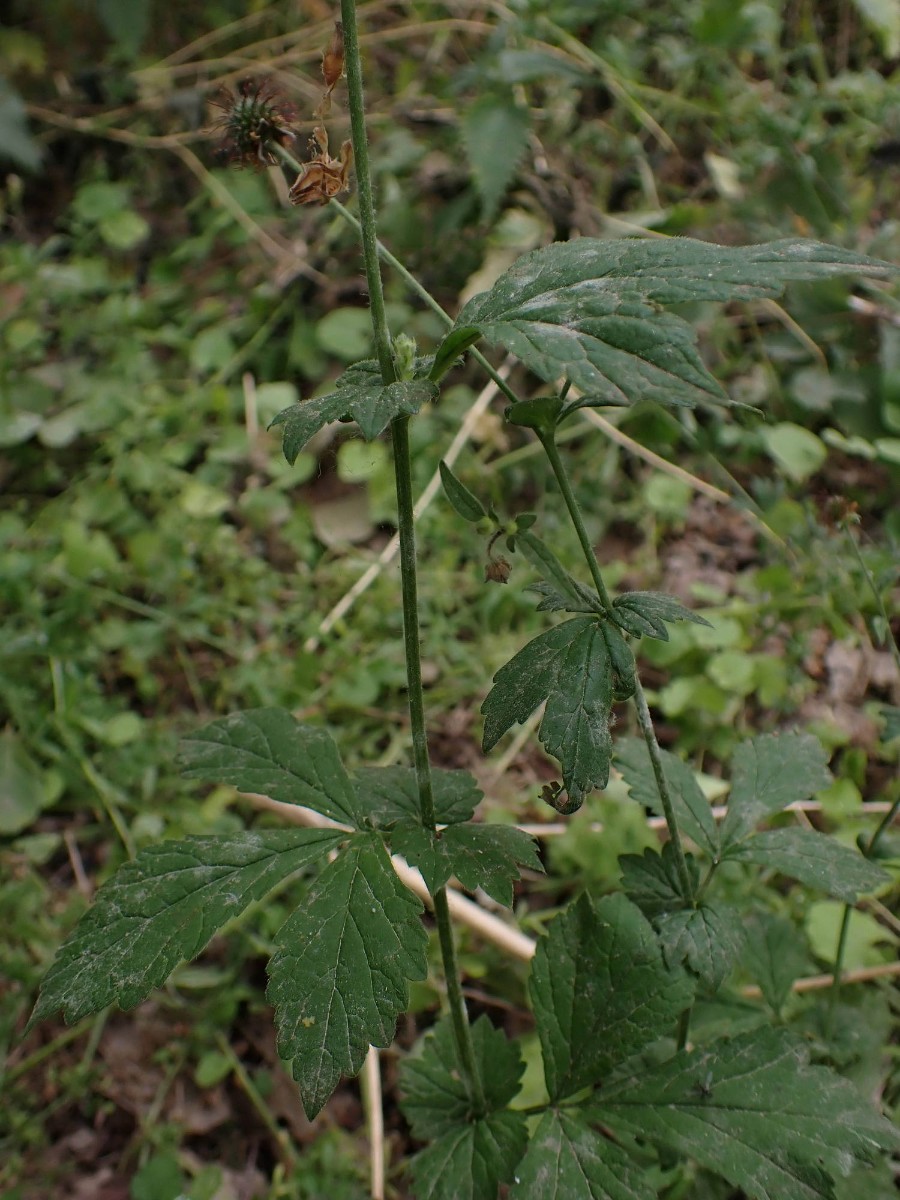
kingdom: Fungi
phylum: Ascomycota
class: Leotiomycetes
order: Helotiales
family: Erysiphaceae
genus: Podosphaera
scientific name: Podosphaera aphanis
